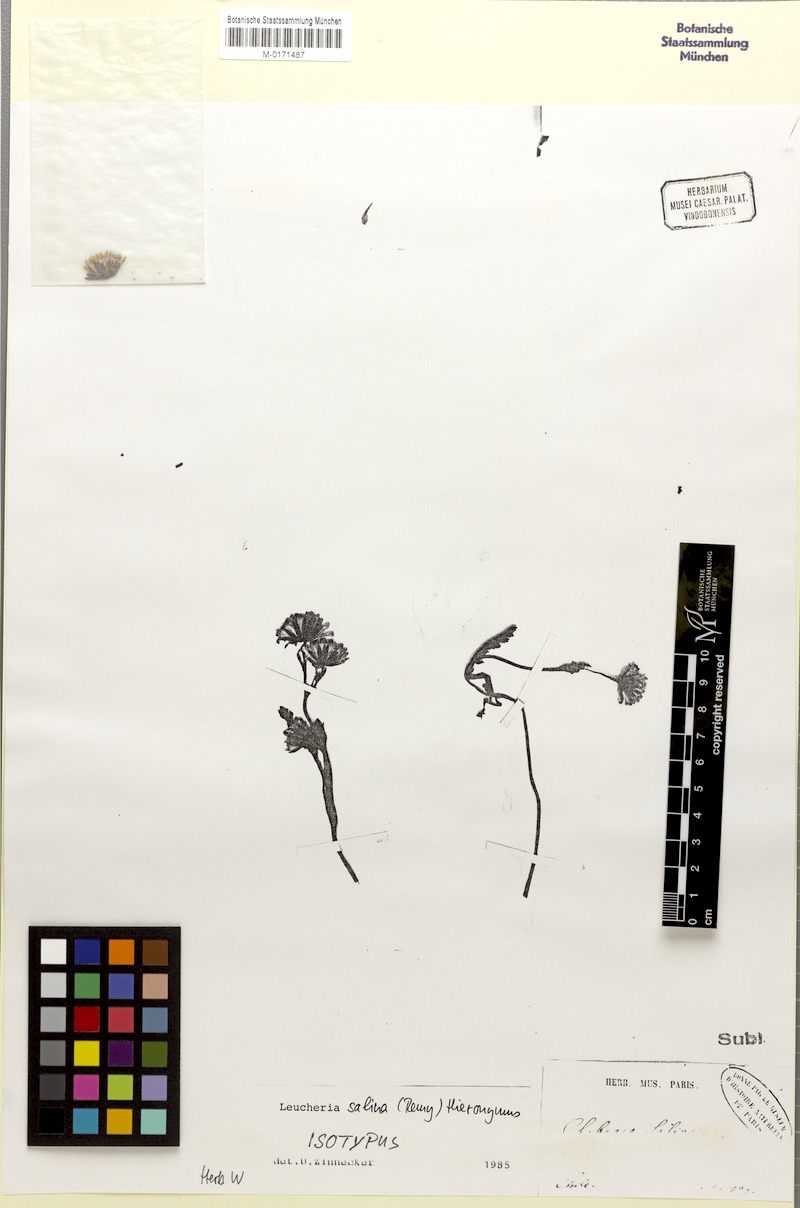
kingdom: Plantae
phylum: Tracheophyta
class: Magnoliopsida
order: Asterales
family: Asteraceae
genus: Leucheria
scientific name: Leucheria salina
